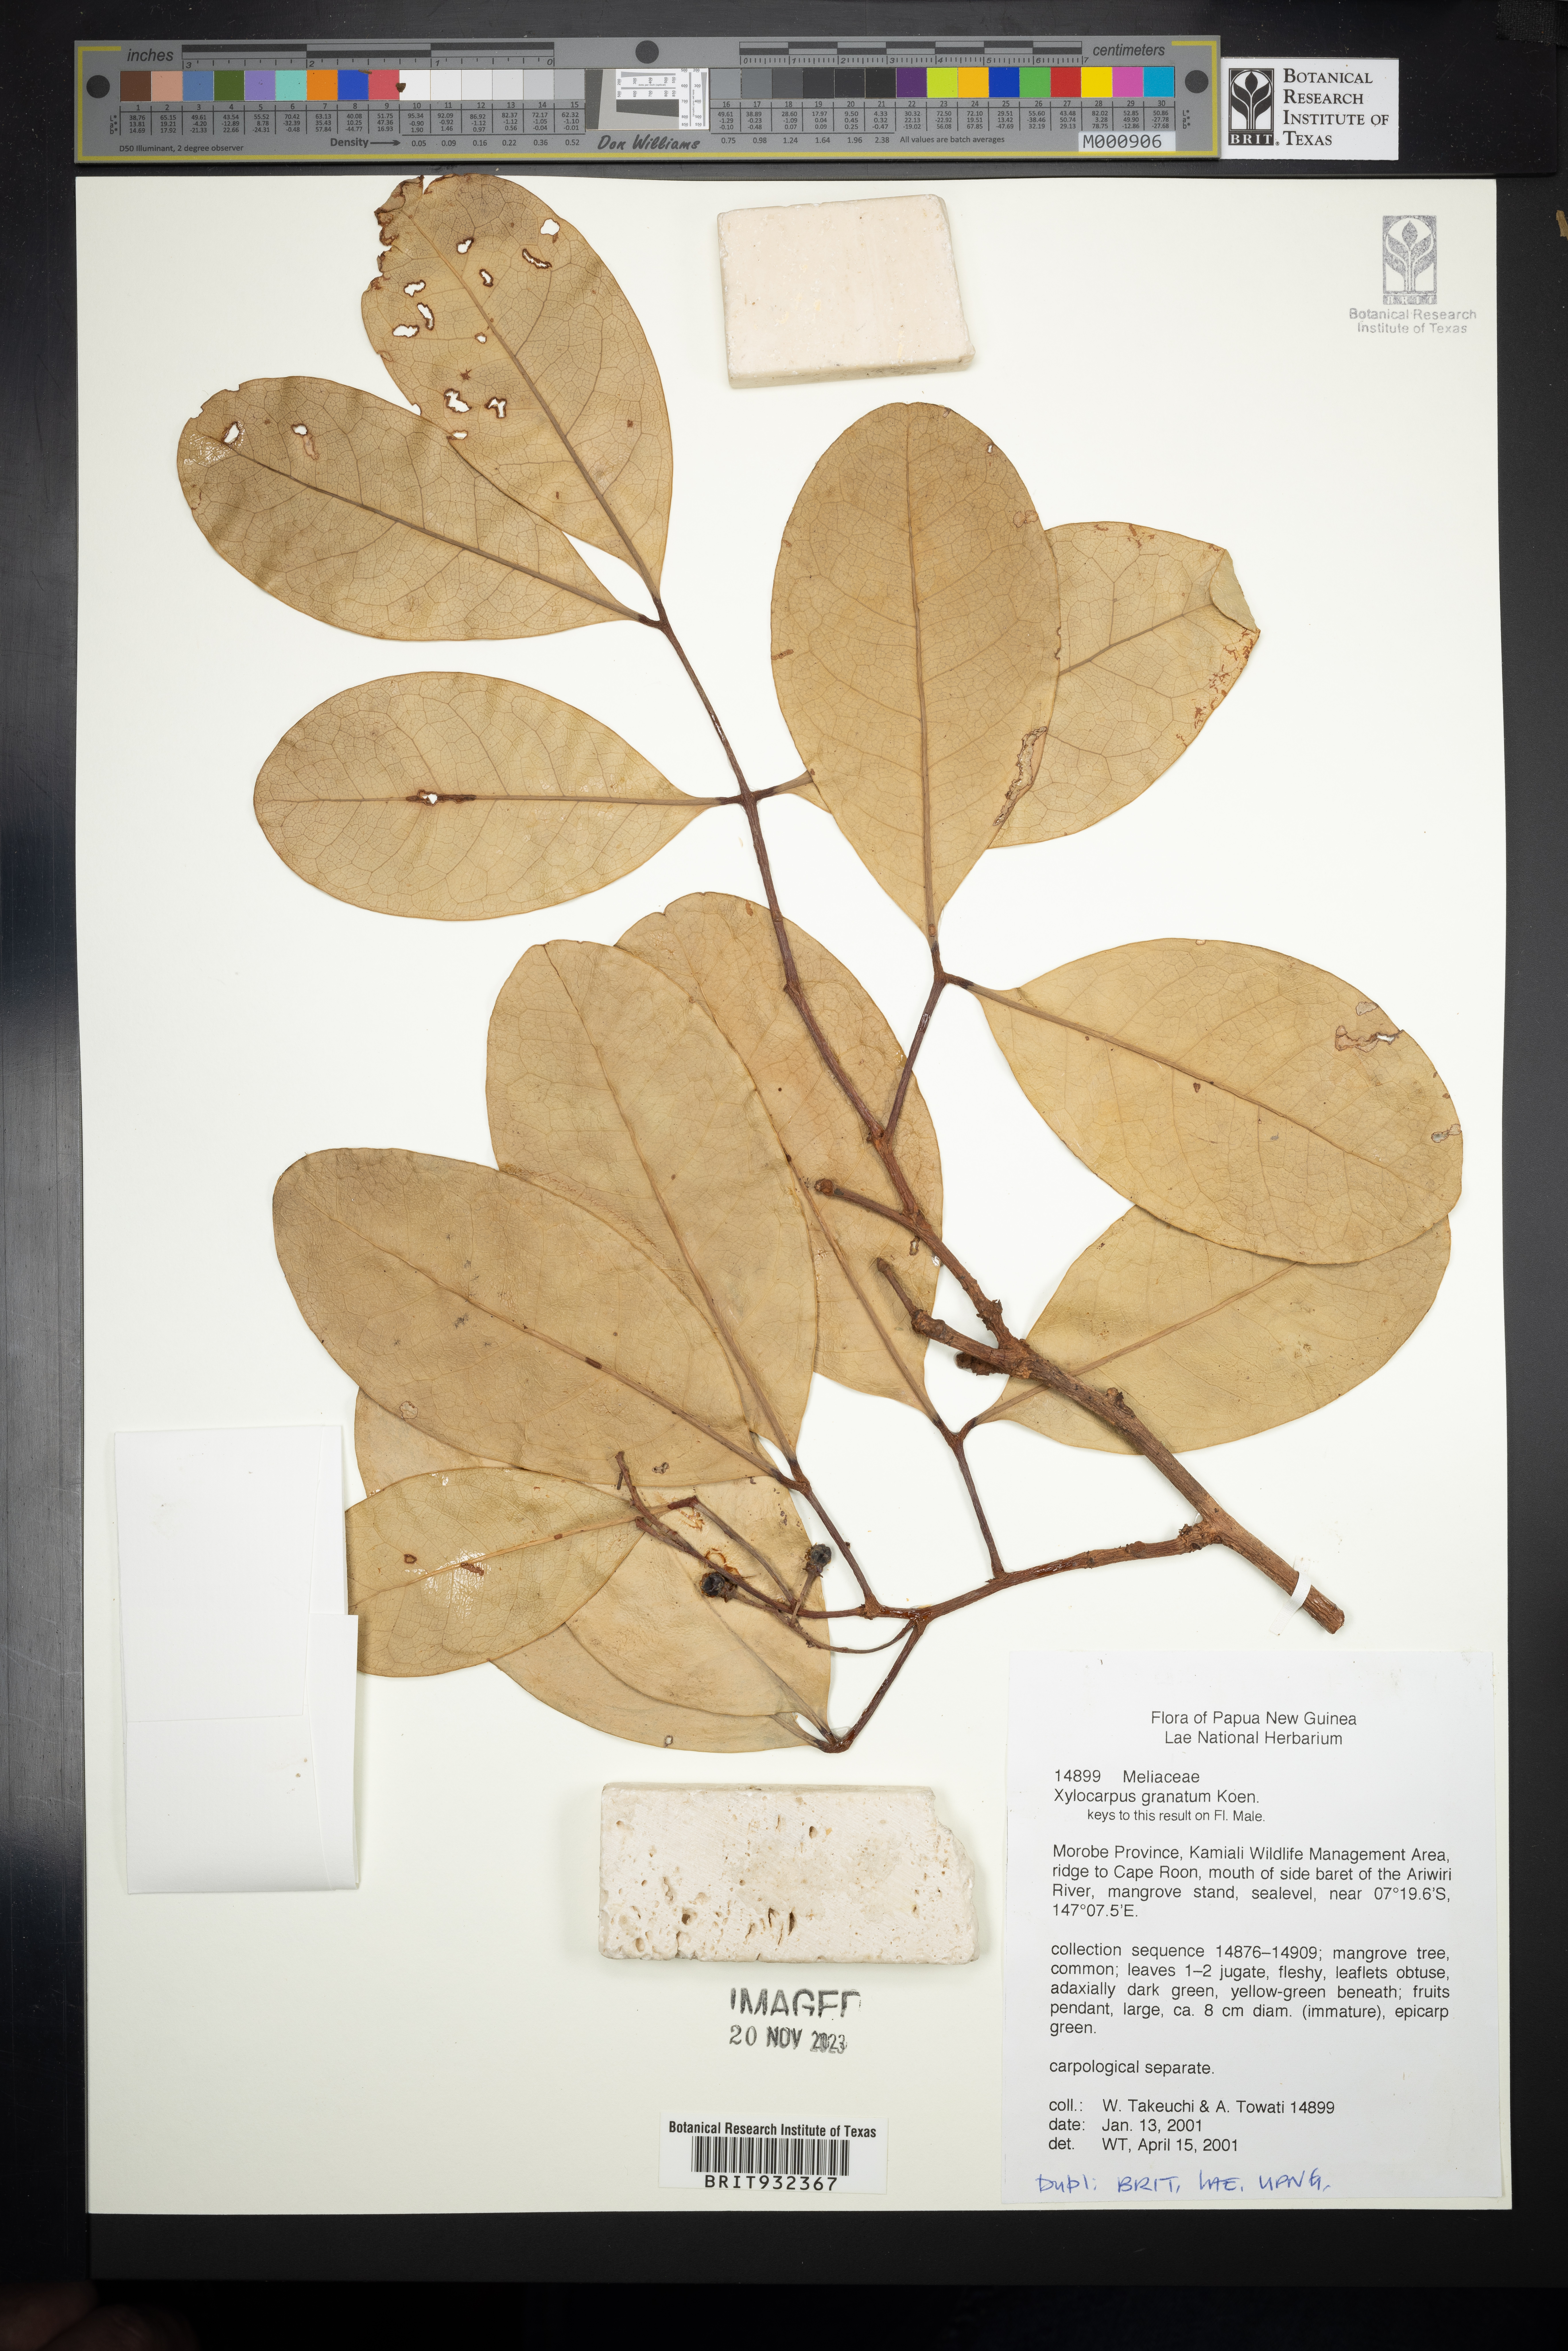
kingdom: Plantae
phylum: Tracheophyta
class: Magnoliopsida
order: Sapindales
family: Meliaceae
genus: Xylocarpus
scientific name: Xylocarpus granatum
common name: Apple mangrove
